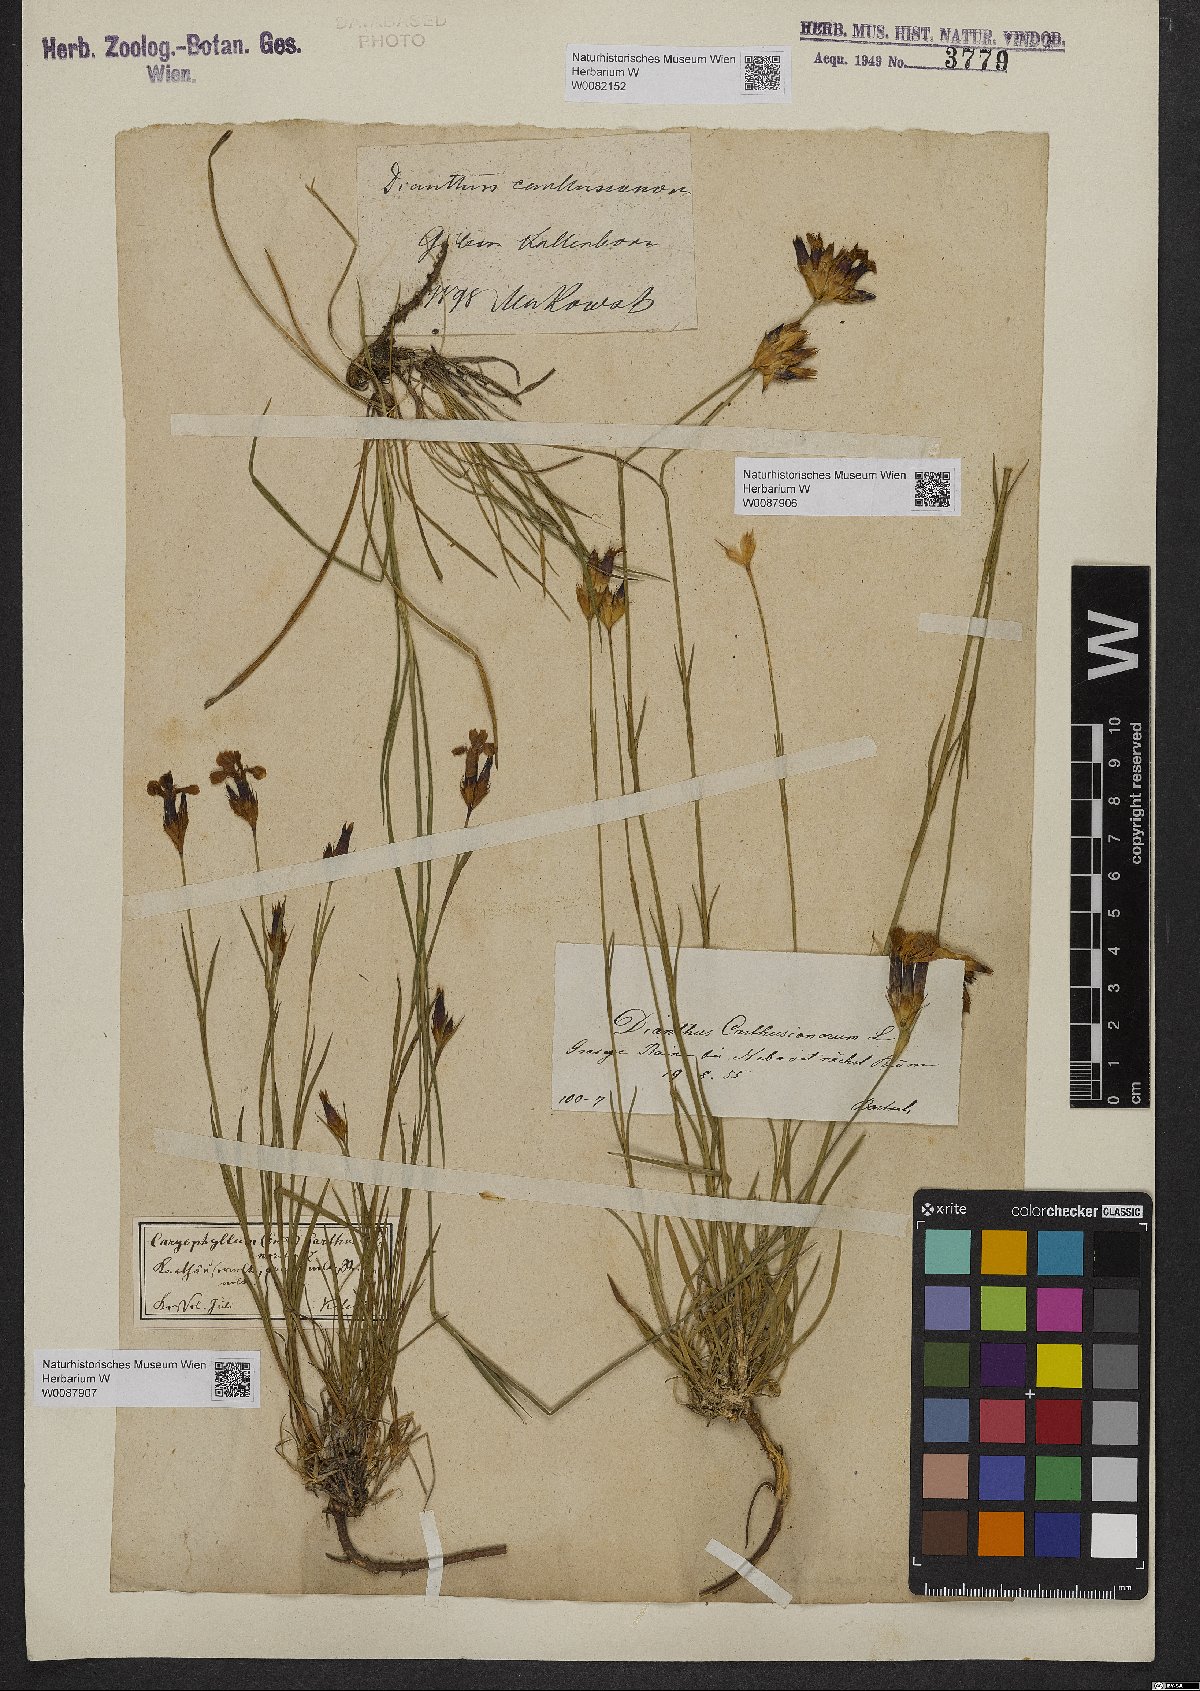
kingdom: Plantae
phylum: Tracheophyta
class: Magnoliopsida
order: Caryophyllales
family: Caryophyllaceae
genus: Dianthus
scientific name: Dianthus carthusianorum
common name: Carthusian pink
